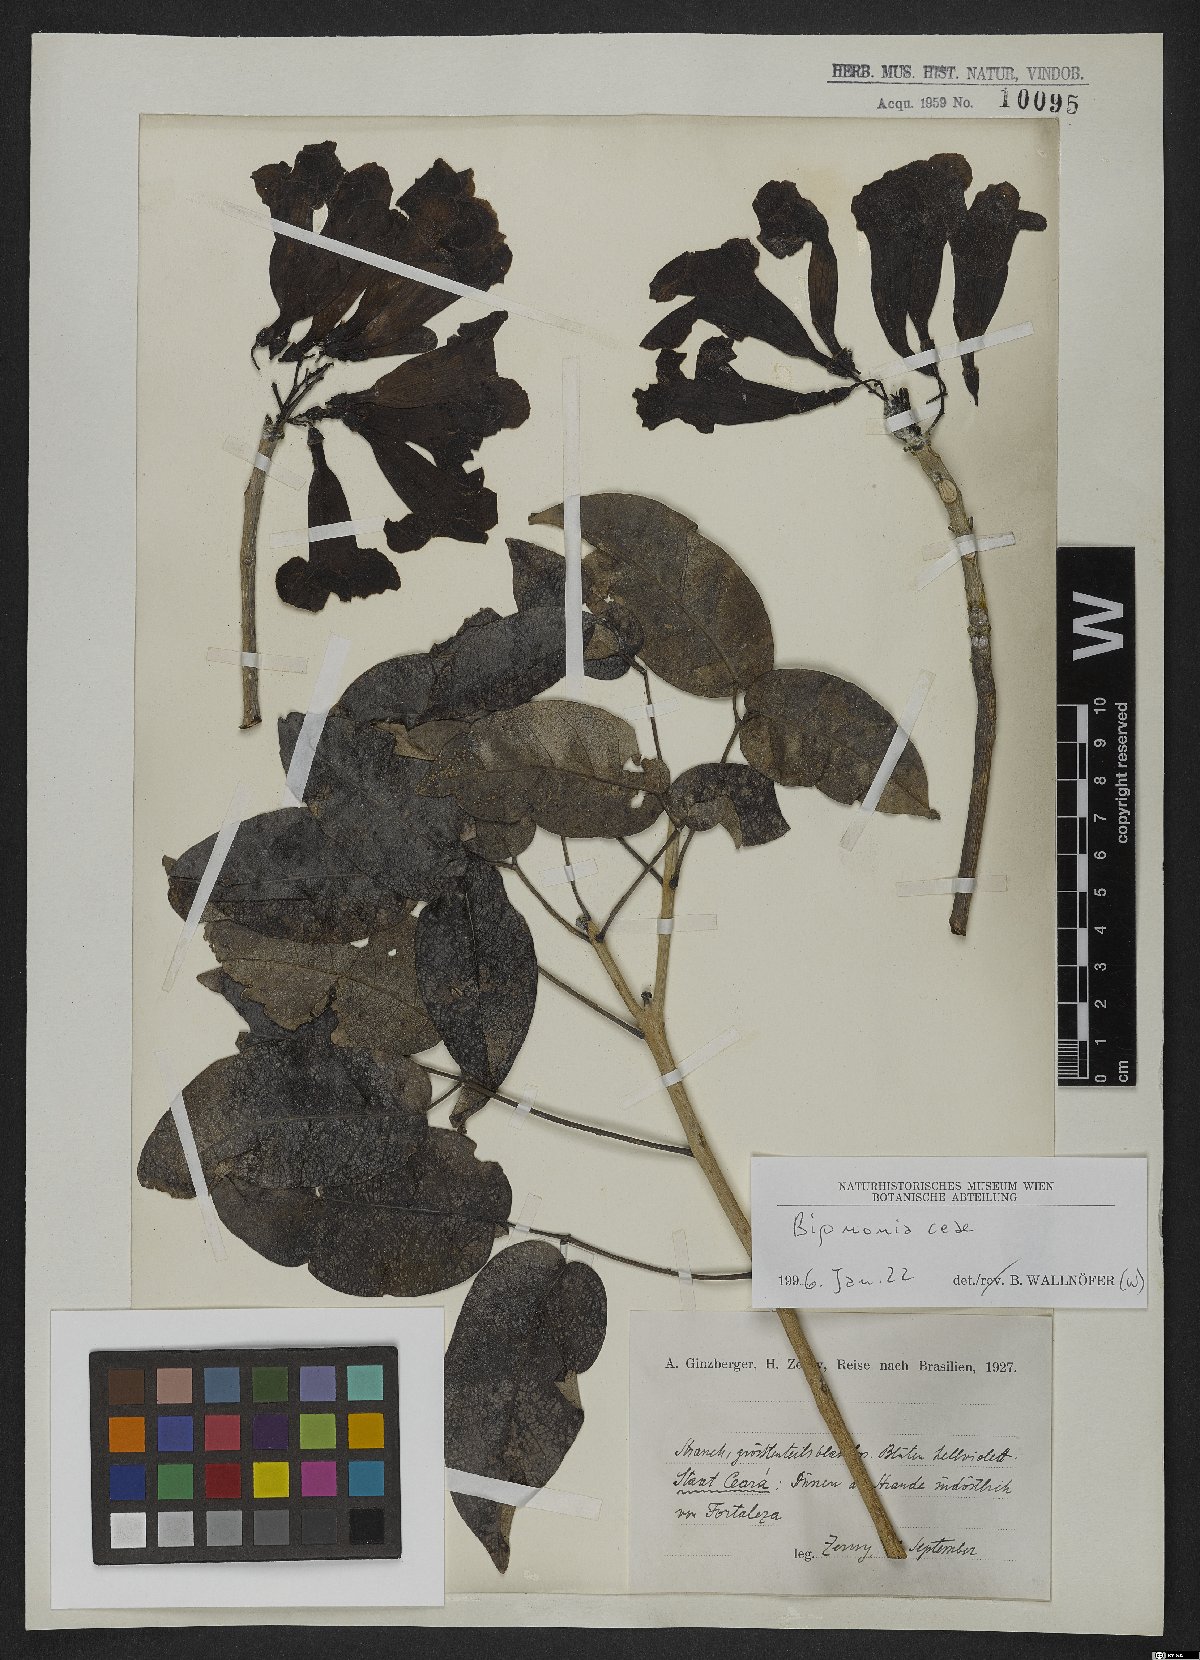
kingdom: Plantae
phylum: Tracheophyta
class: Magnoliopsida
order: Lamiales
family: Bignoniaceae
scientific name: Bignoniaceae
